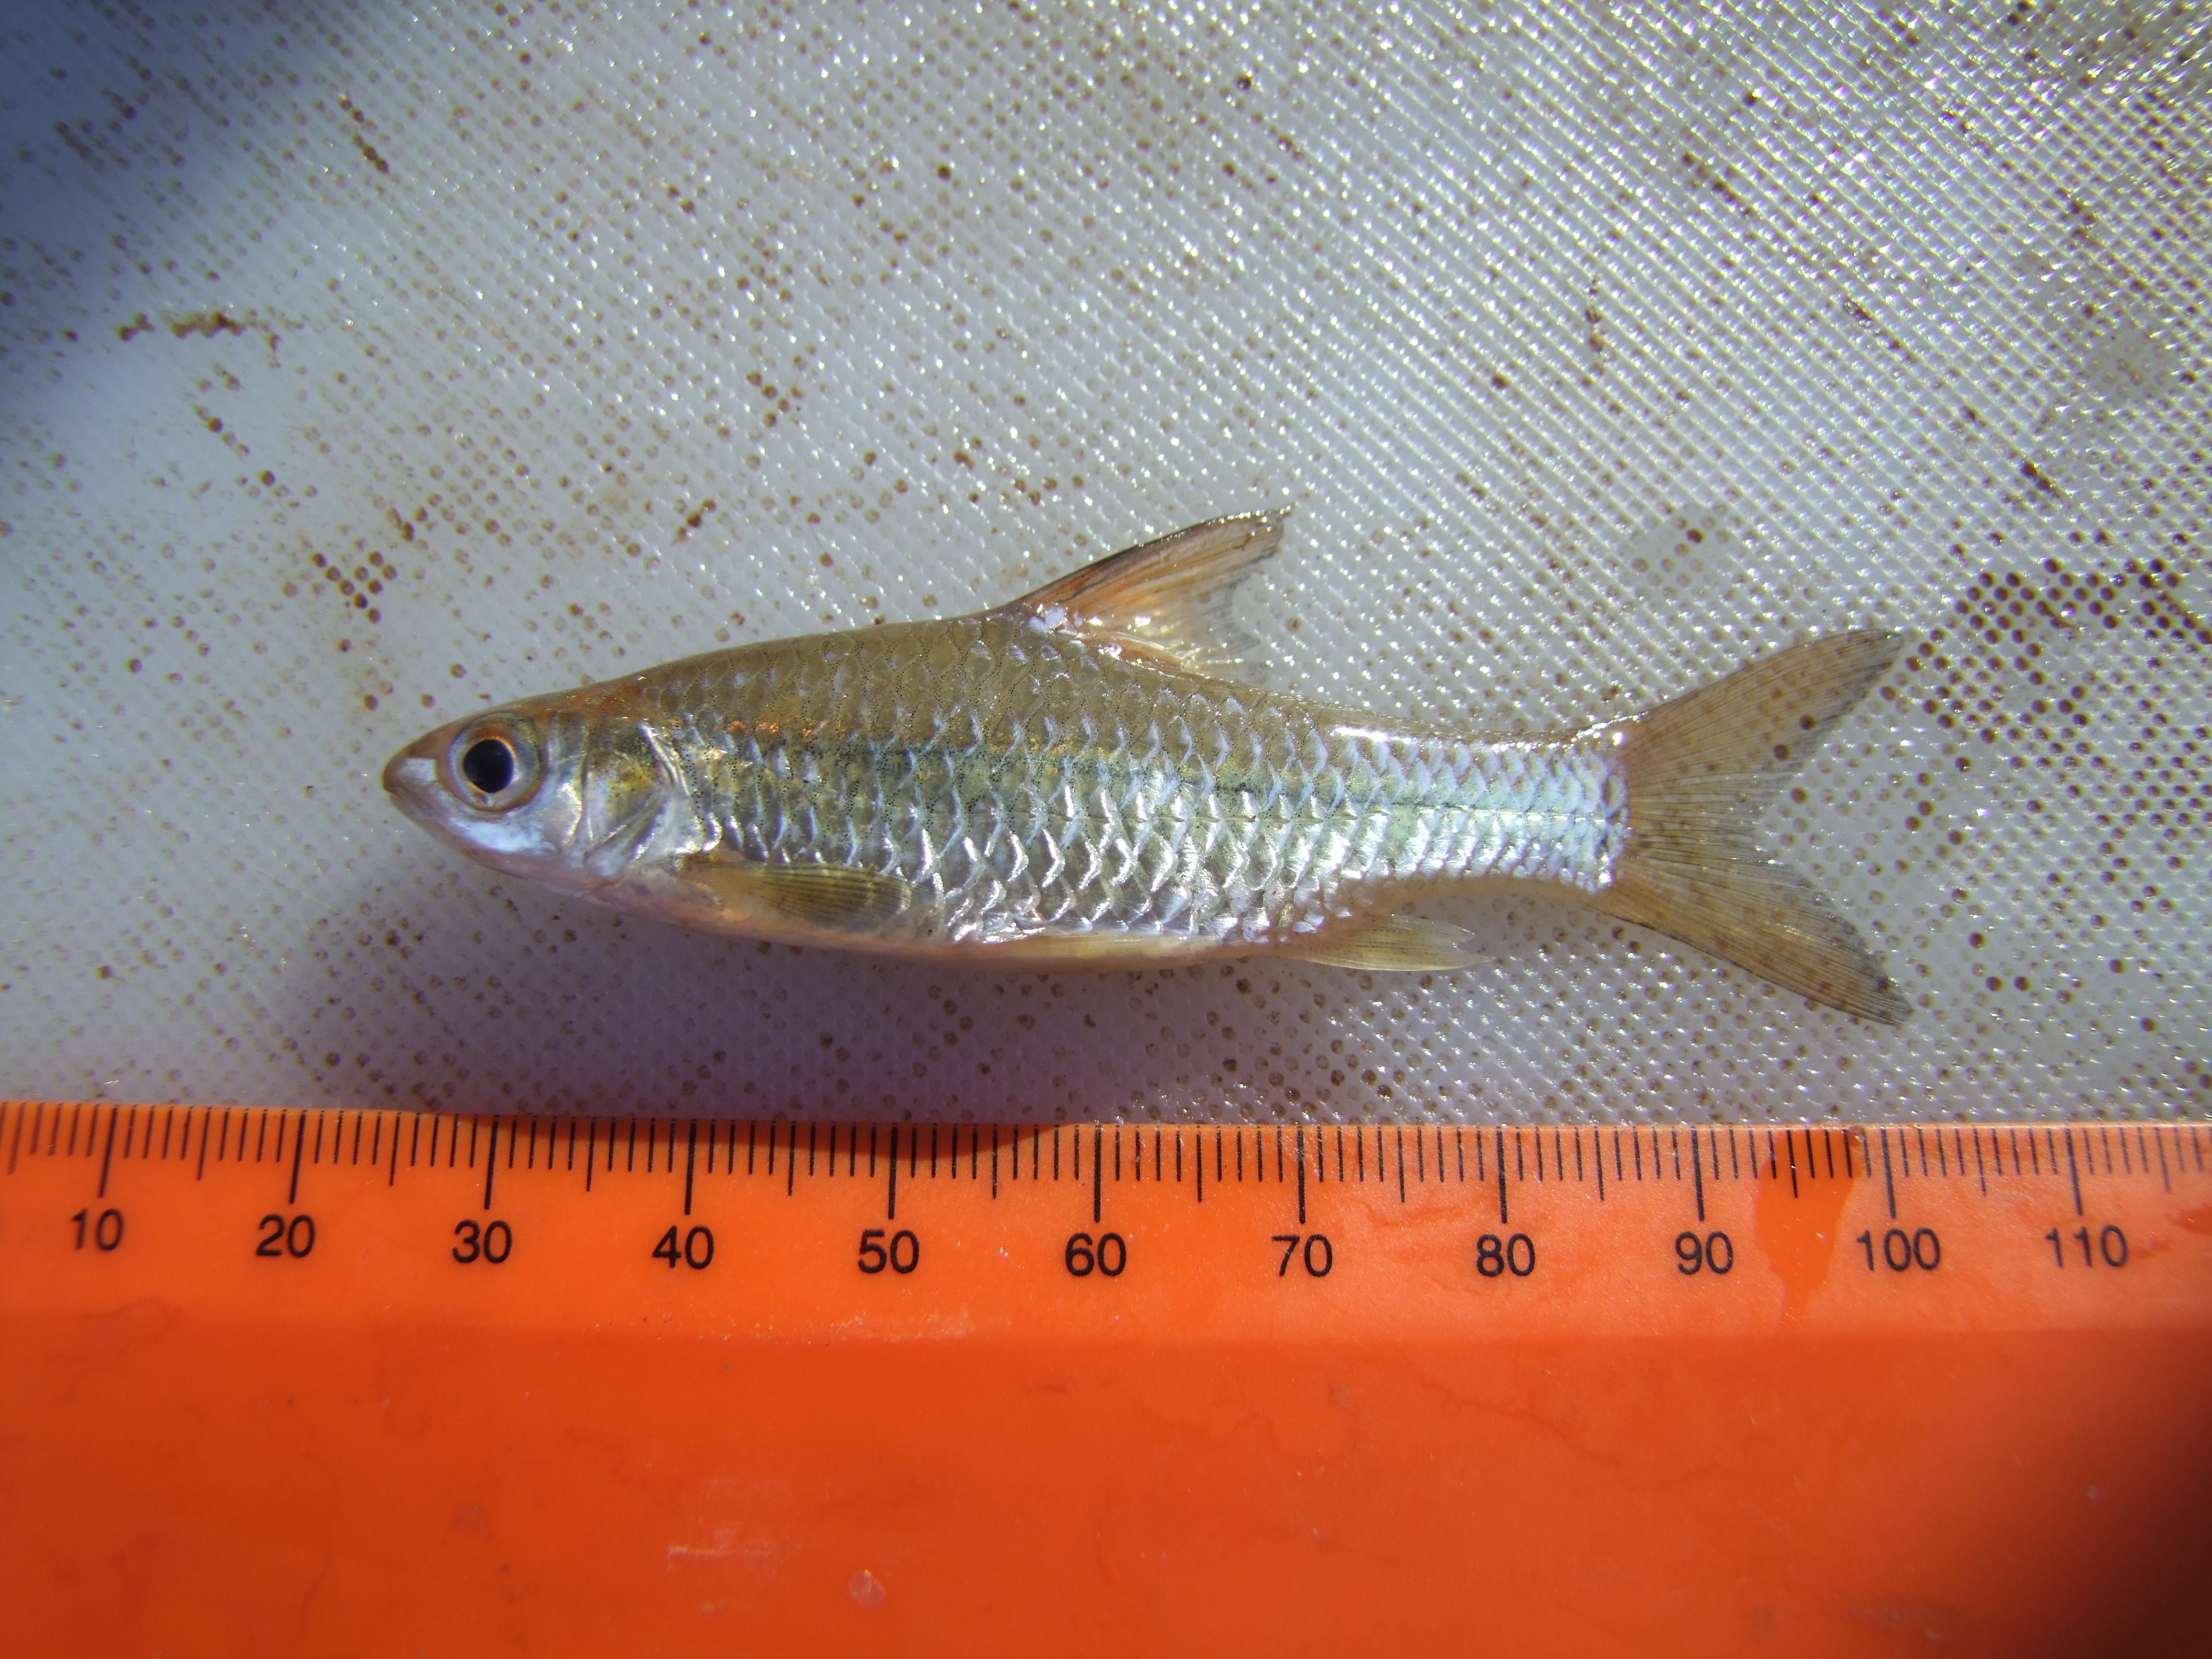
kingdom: Animalia
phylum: Chordata
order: Cypriniformes
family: Cyprinidae
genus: Enteromius
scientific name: Enteromius afrohamiltoni
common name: Hamilton's barb
